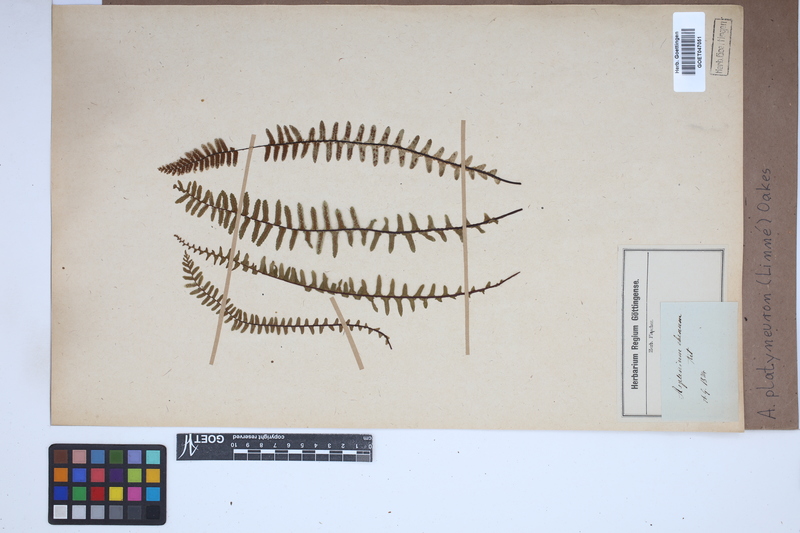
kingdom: Plantae
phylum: Tracheophyta
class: Polypodiopsida
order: Polypodiales
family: Aspleniaceae
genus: Asplenium
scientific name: Asplenium platyneuron
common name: Ebony spleenwort
